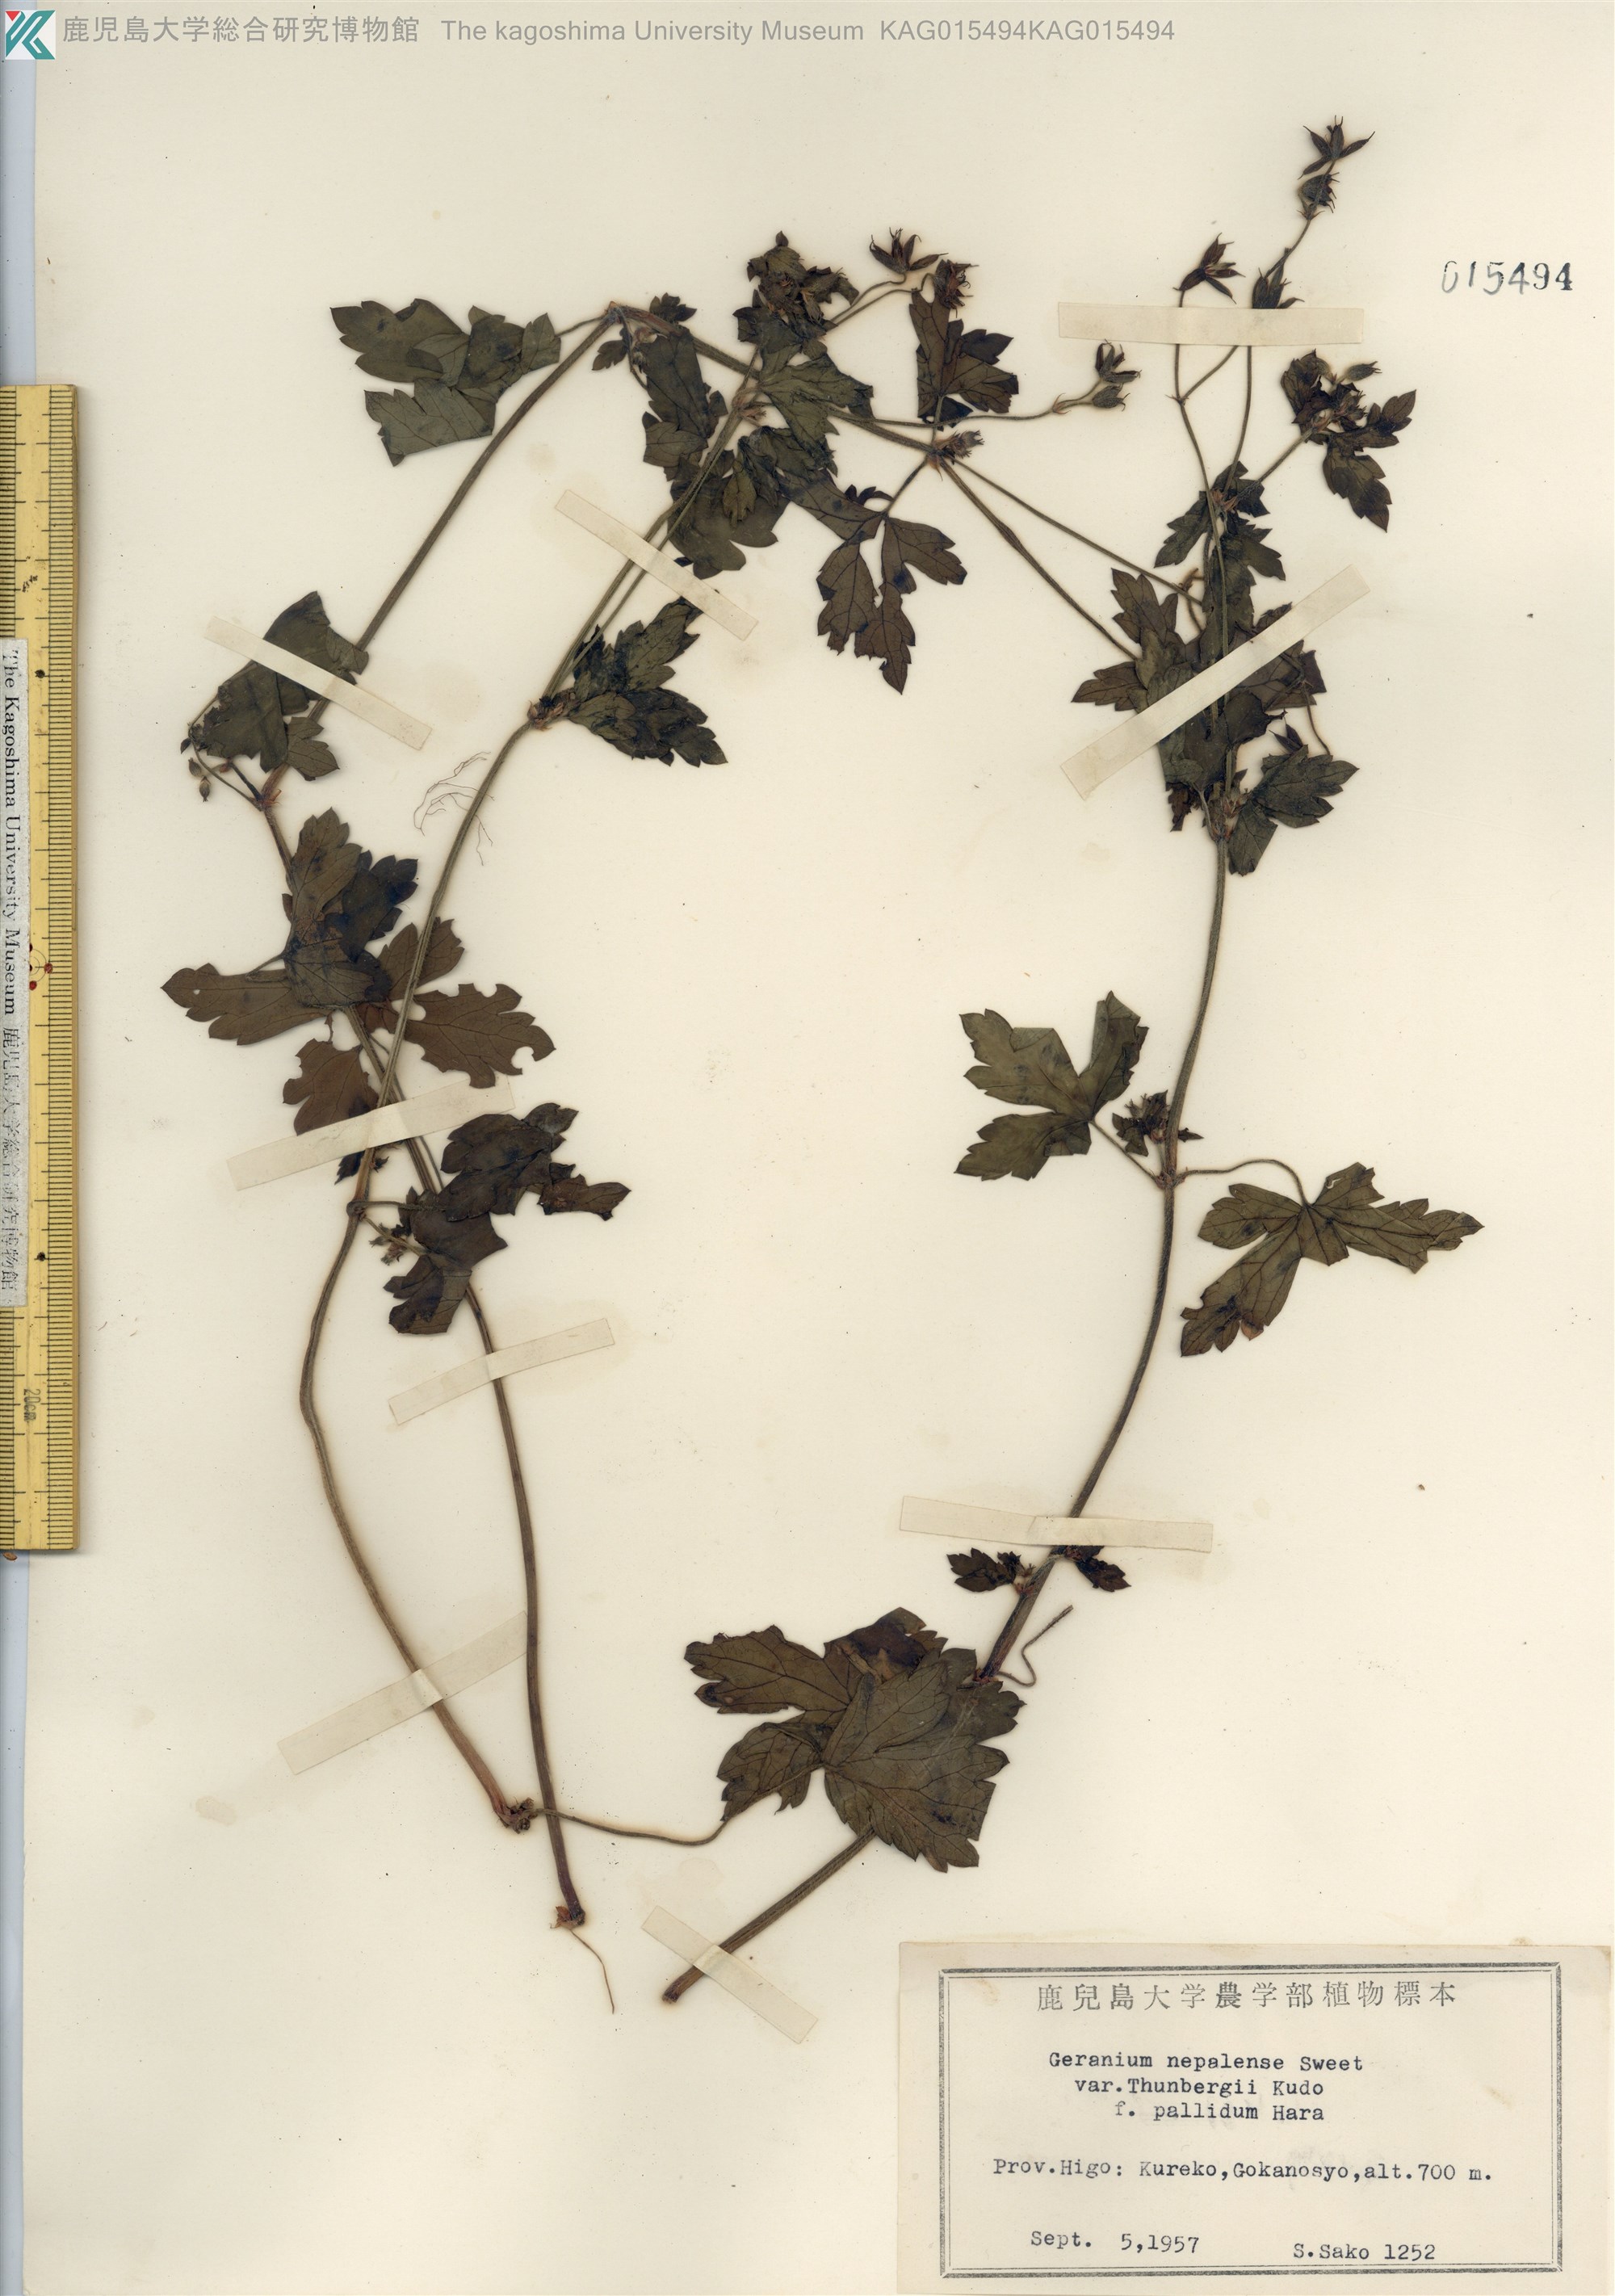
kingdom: Plantae
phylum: Tracheophyta
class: Magnoliopsida
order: Geraniales
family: Geraniaceae
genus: Geranium
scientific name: Geranium thunbergii
